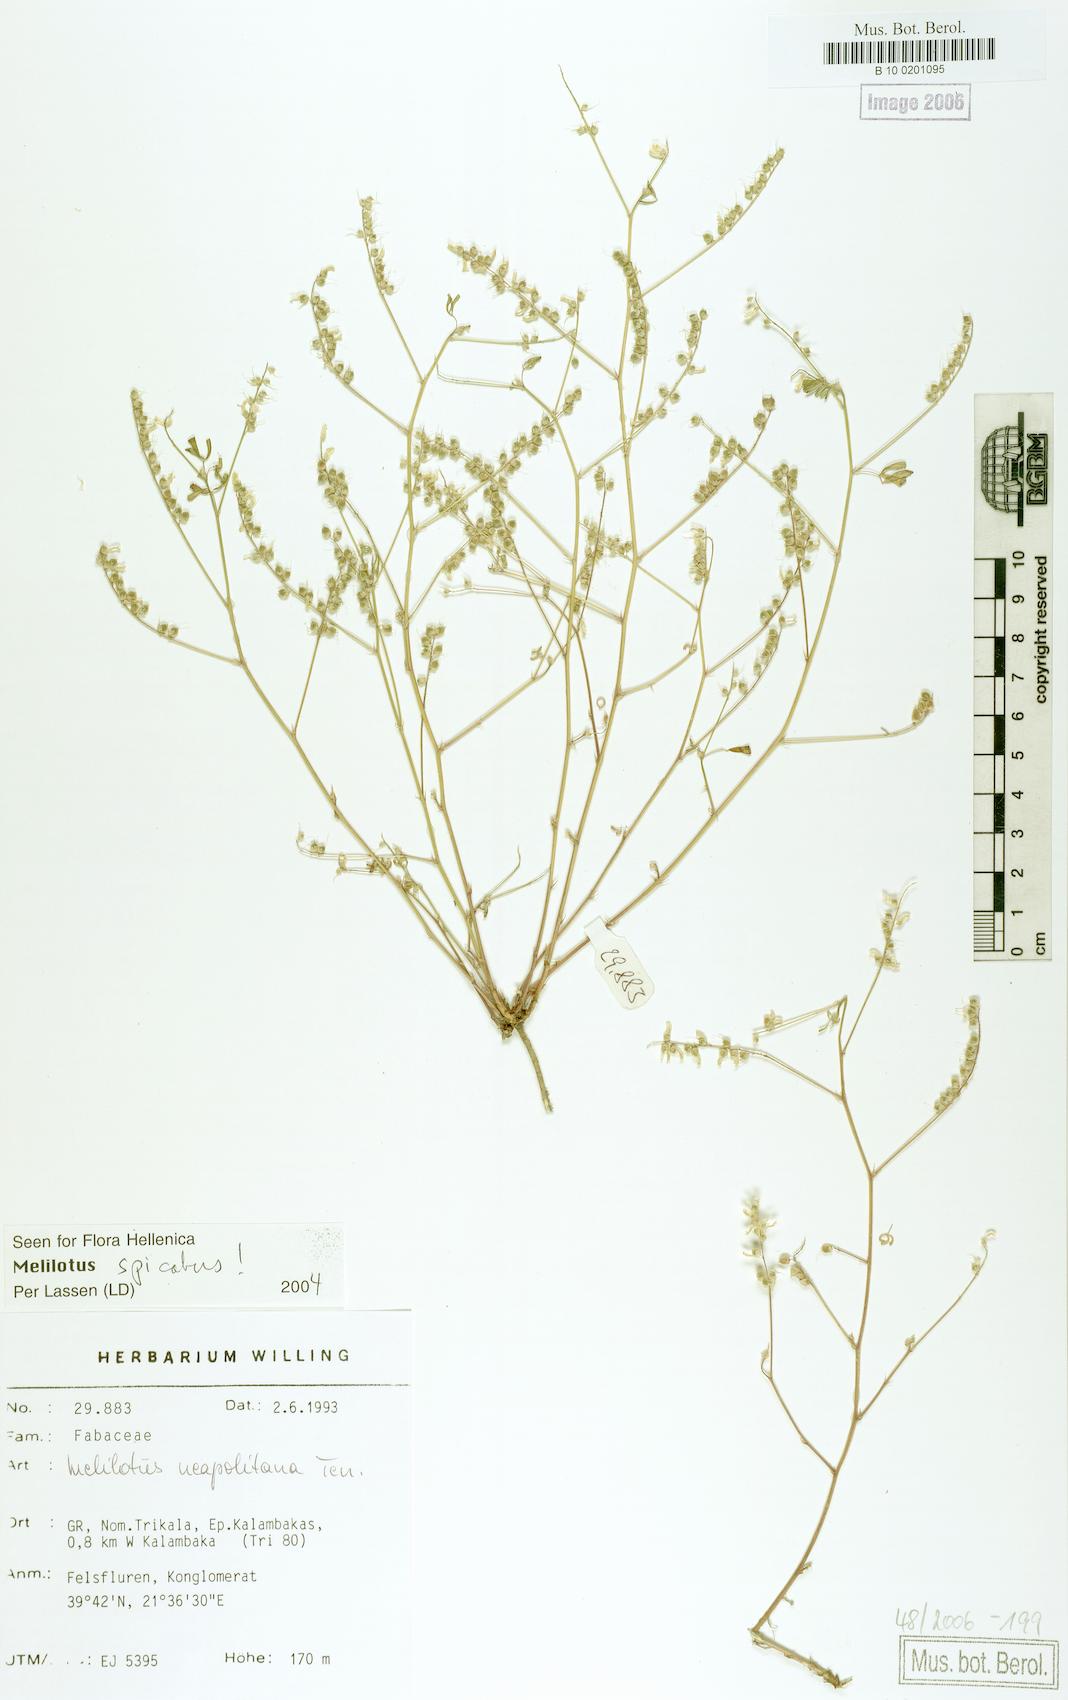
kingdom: Plantae
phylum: Tracheophyta
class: Magnoliopsida
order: Fabales
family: Fabaceae
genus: Melilotus
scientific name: Melilotus neapolitanus
